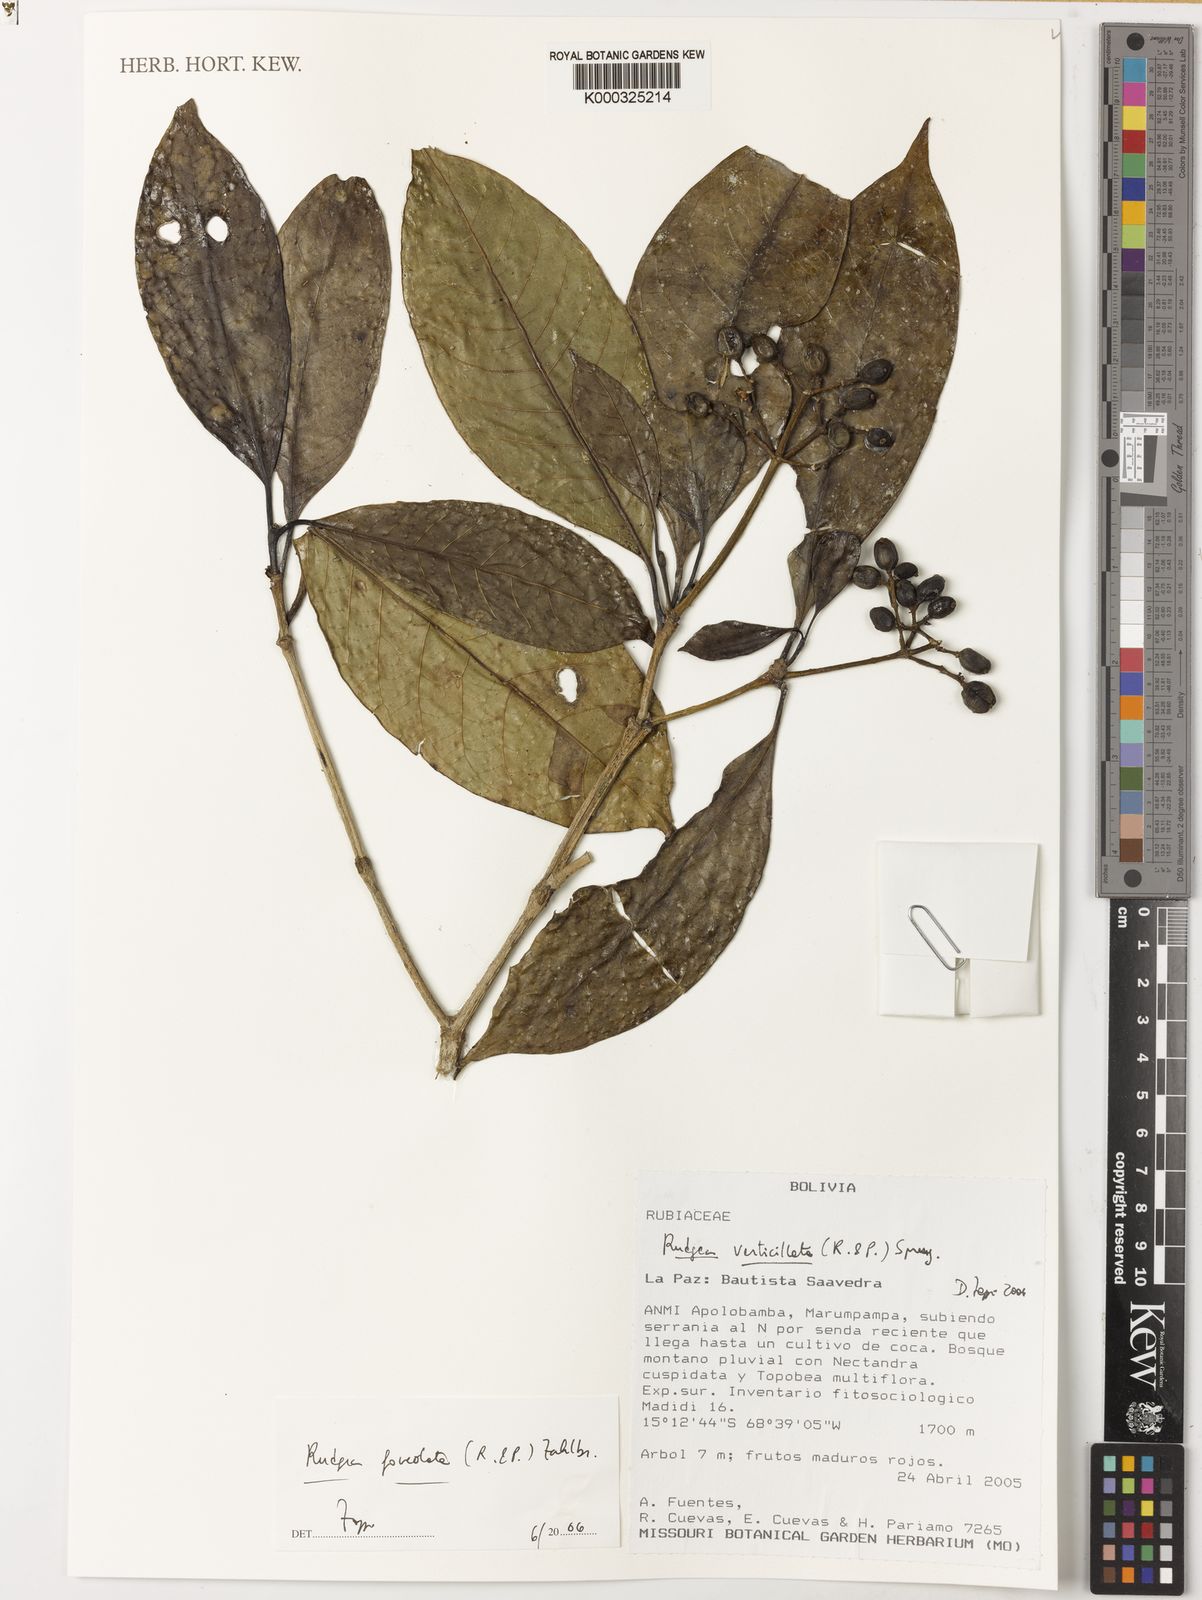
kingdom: Plantae
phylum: Tracheophyta
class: Magnoliopsida
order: Gentianales
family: Rubiaceae
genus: Rudgea
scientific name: Rudgea foveolata
